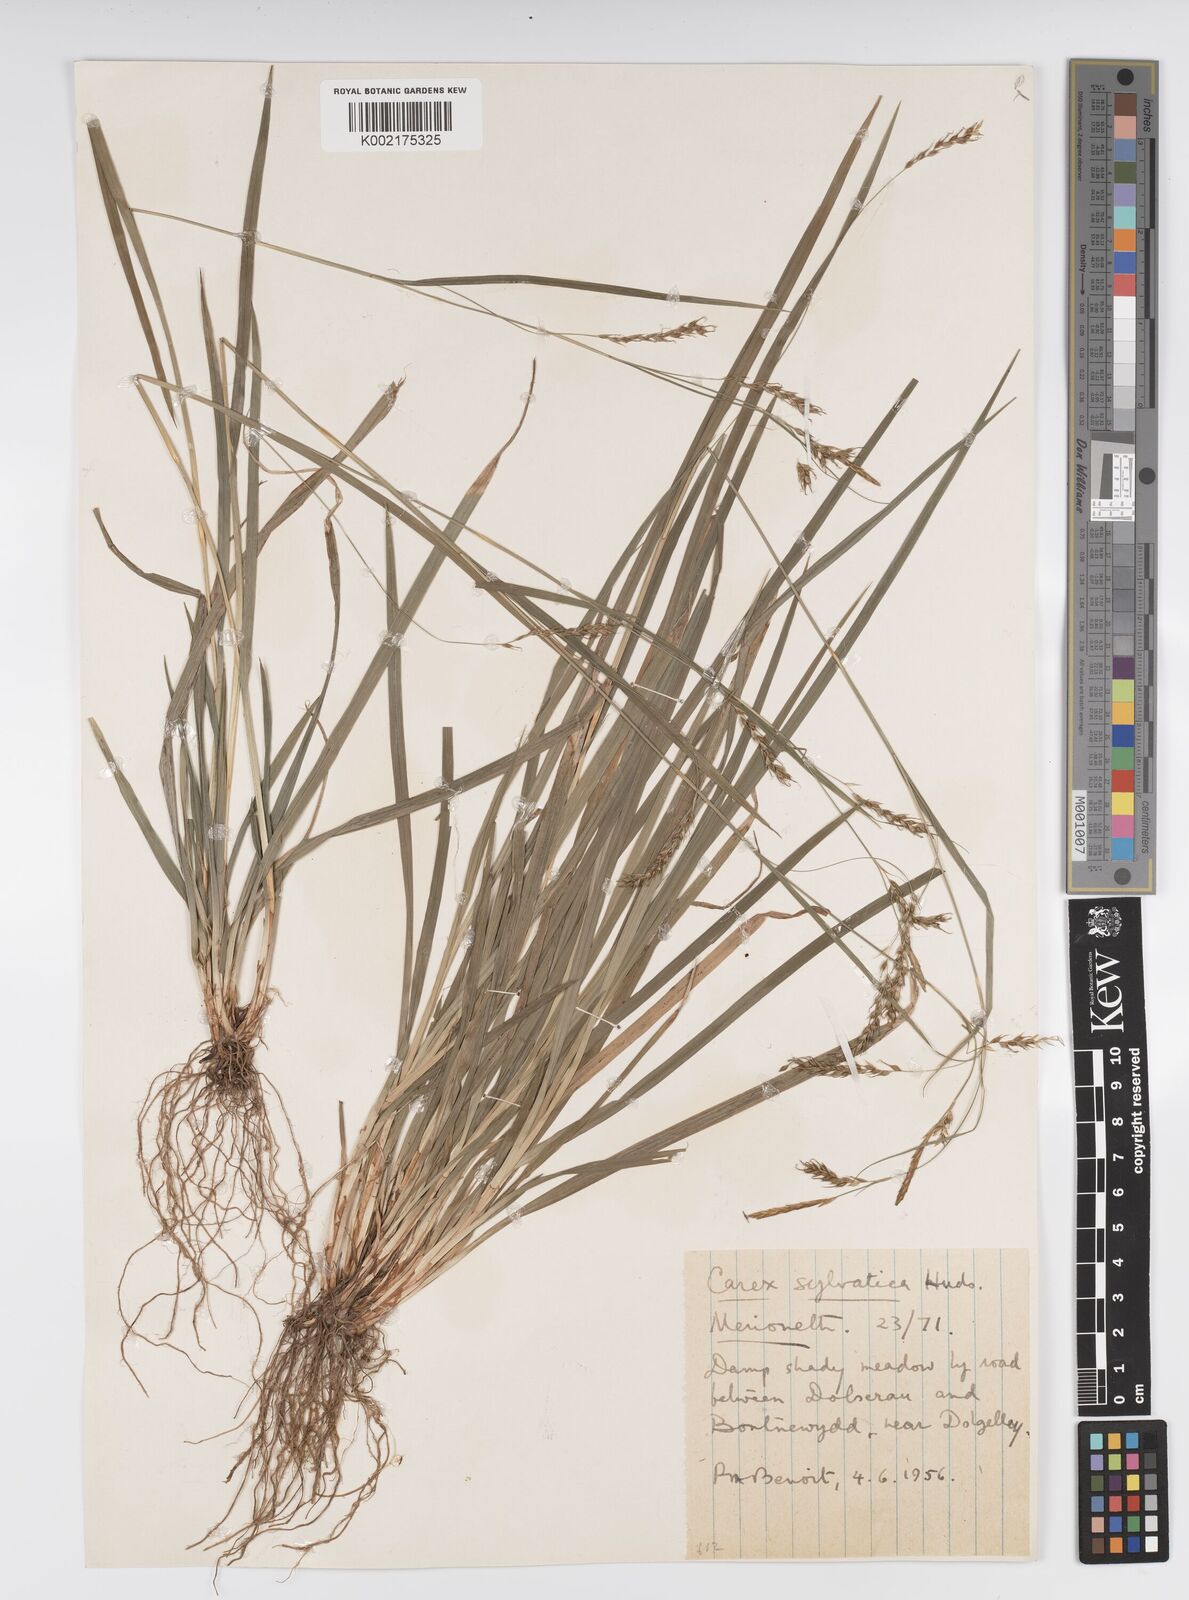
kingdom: Plantae
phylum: Tracheophyta
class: Liliopsida
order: Poales
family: Cyperaceae
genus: Carex
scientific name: Carex sylvatica
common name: Wood-sedge
